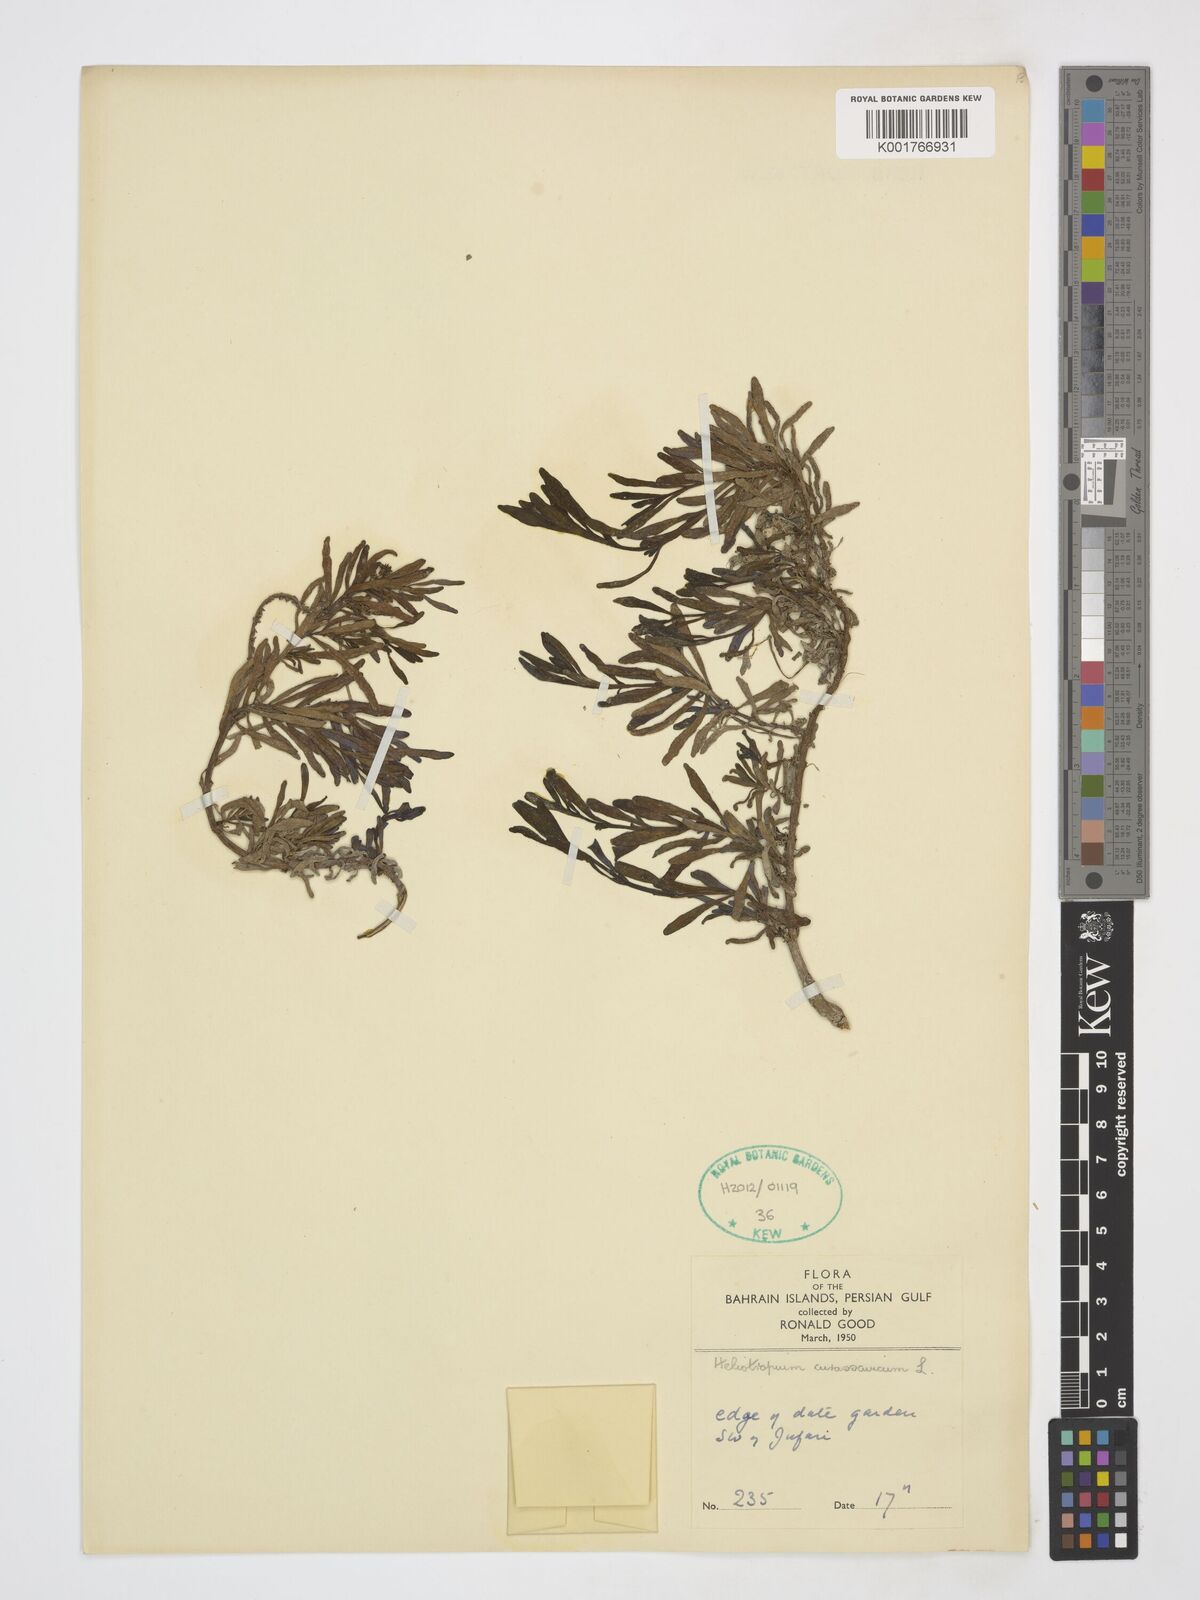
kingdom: Plantae
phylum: Tracheophyta
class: Magnoliopsida
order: Boraginales
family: Heliotropiaceae
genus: Heliotropium
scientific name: Heliotropium curassavicum
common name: Seaside heliotrope
